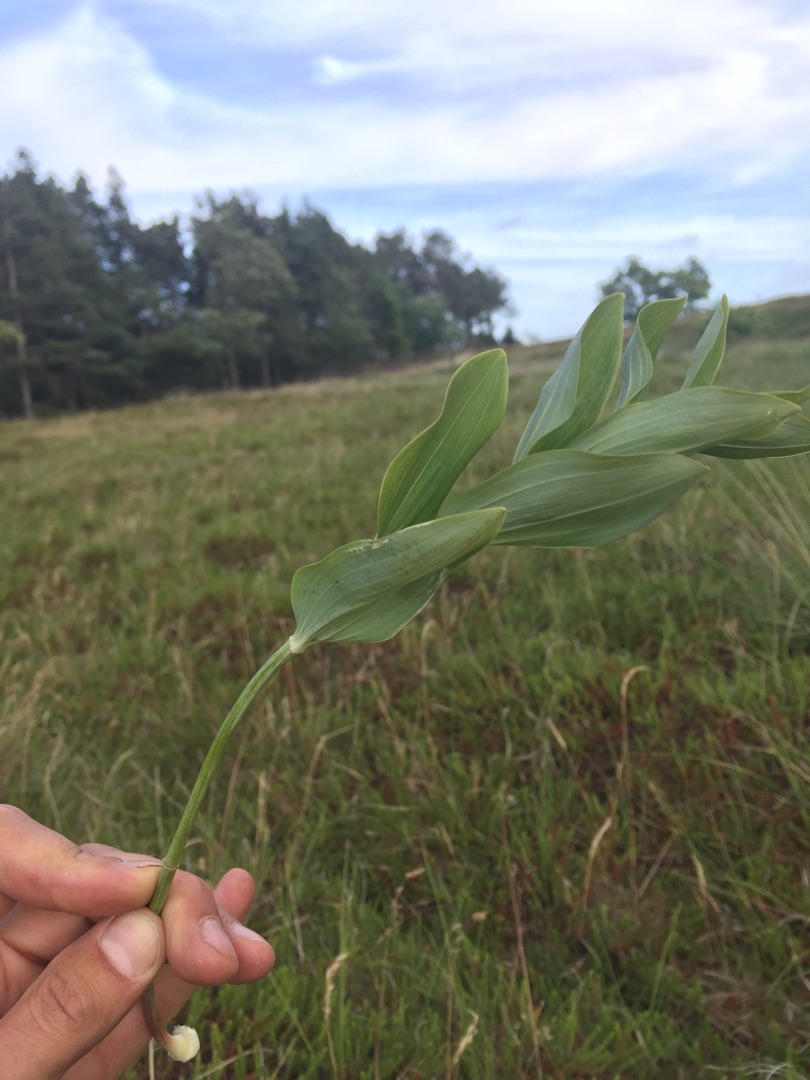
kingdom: Plantae
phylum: Tracheophyta
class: Liliopsida
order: Asparagales
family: Asparagaceae
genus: Polygonatum
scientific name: Polygonatum odoratum
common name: Kantet konval
